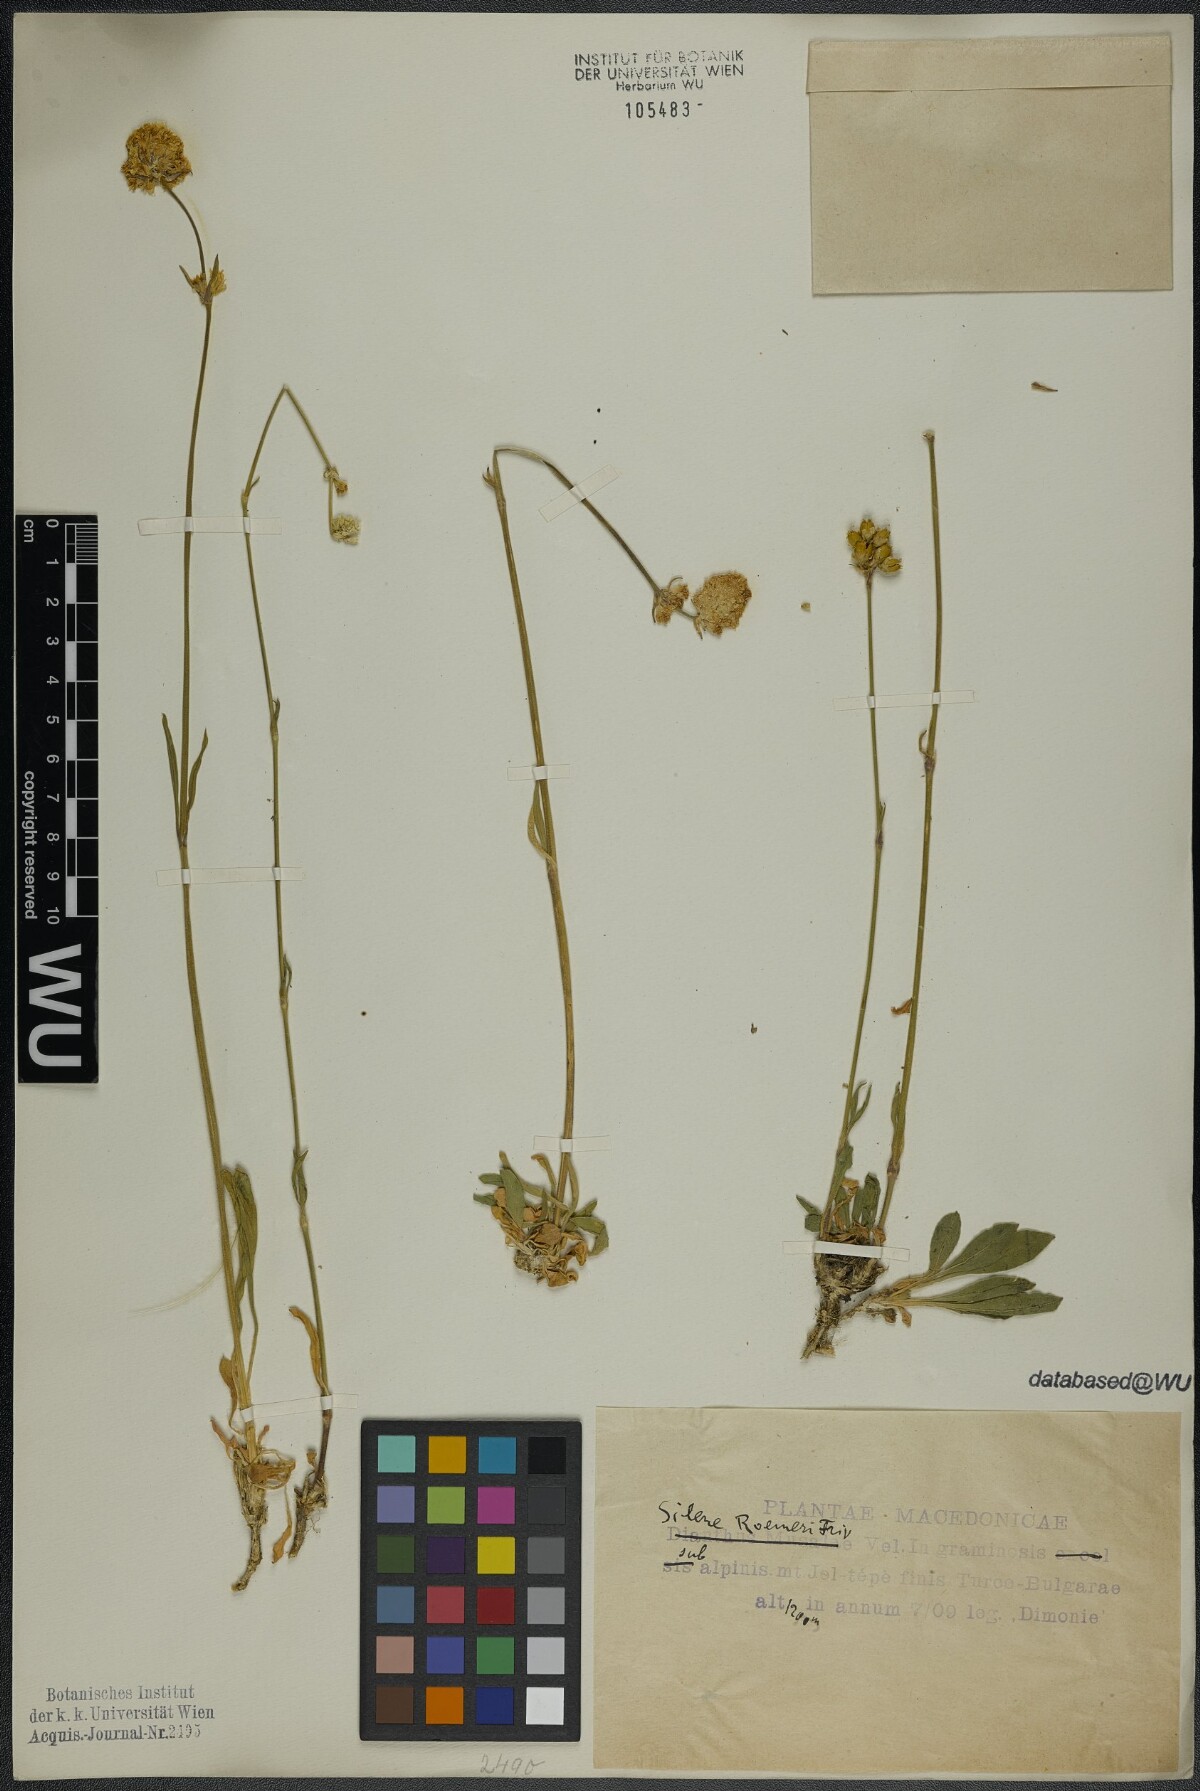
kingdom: Plantae
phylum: Tracheophyta
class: Magnoliopsida
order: Caryophyllales
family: Caryophyllaceae
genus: Silene
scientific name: Silene roemeri
